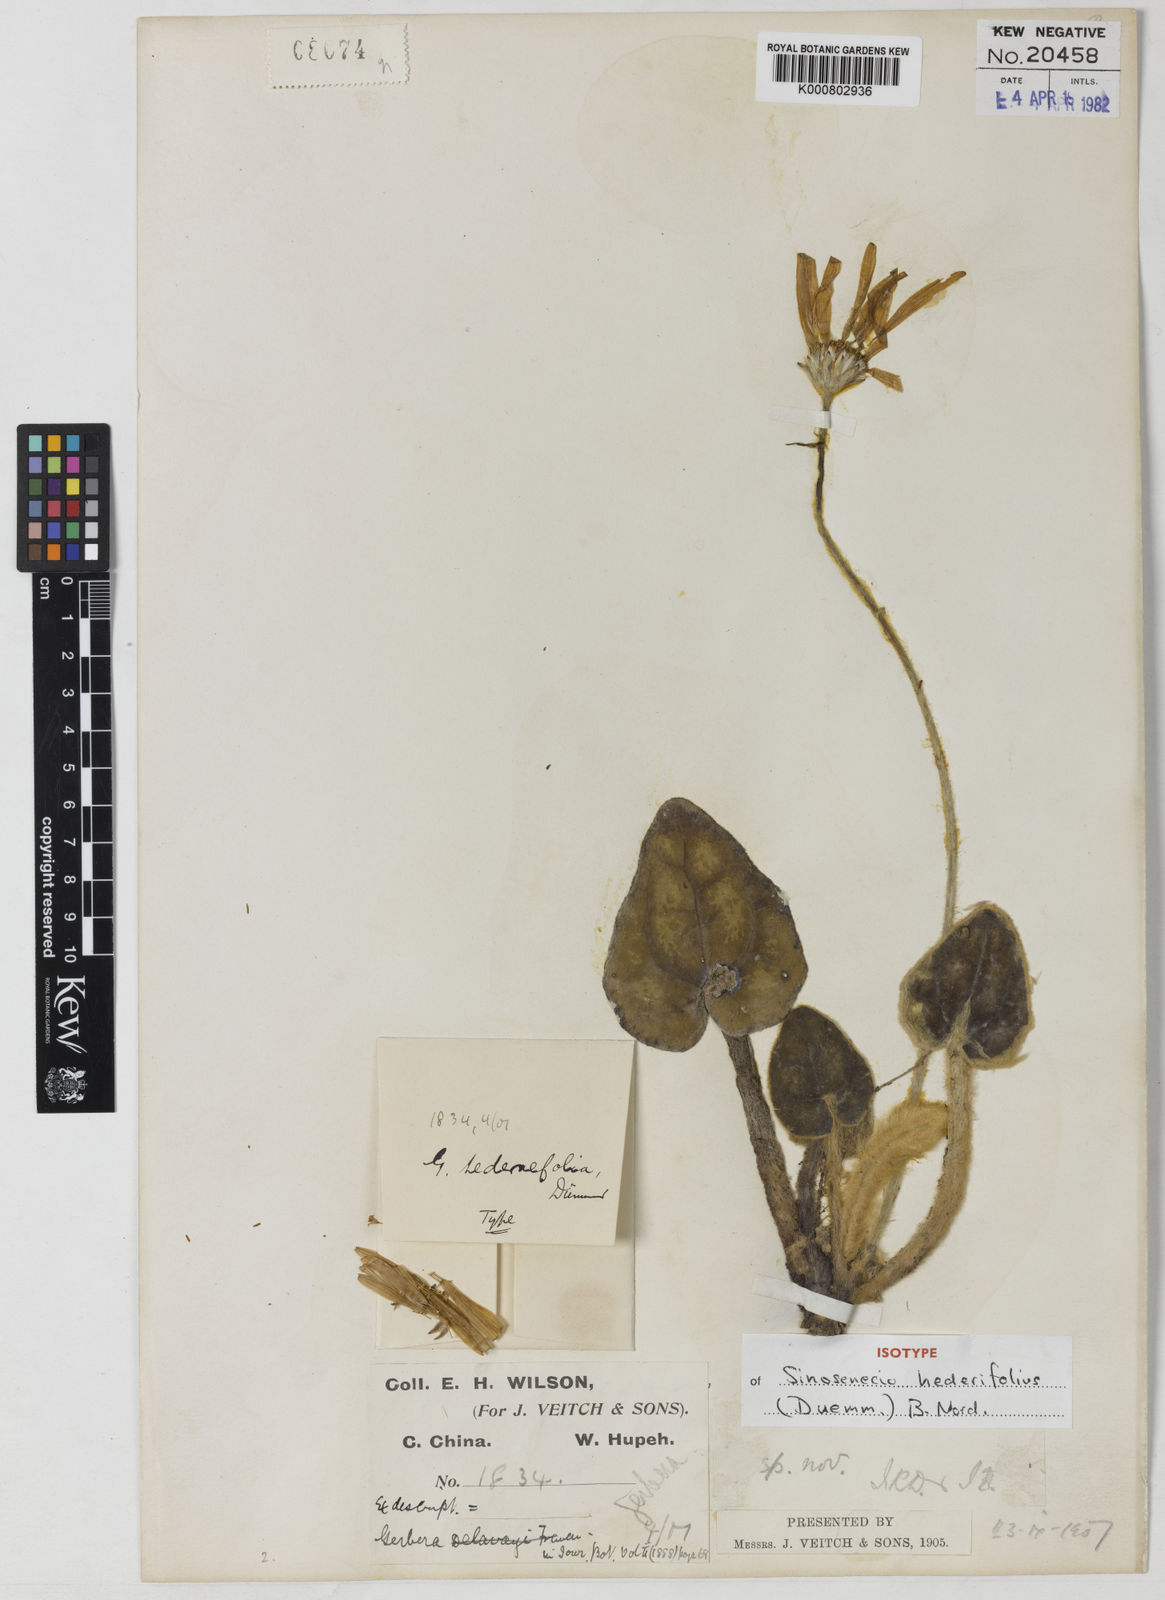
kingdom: Plantae
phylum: Tracheophyta
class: Magnoliopsida
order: Asterales
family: Asteraceae
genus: Sinosenecio
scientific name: Sinosenecio
